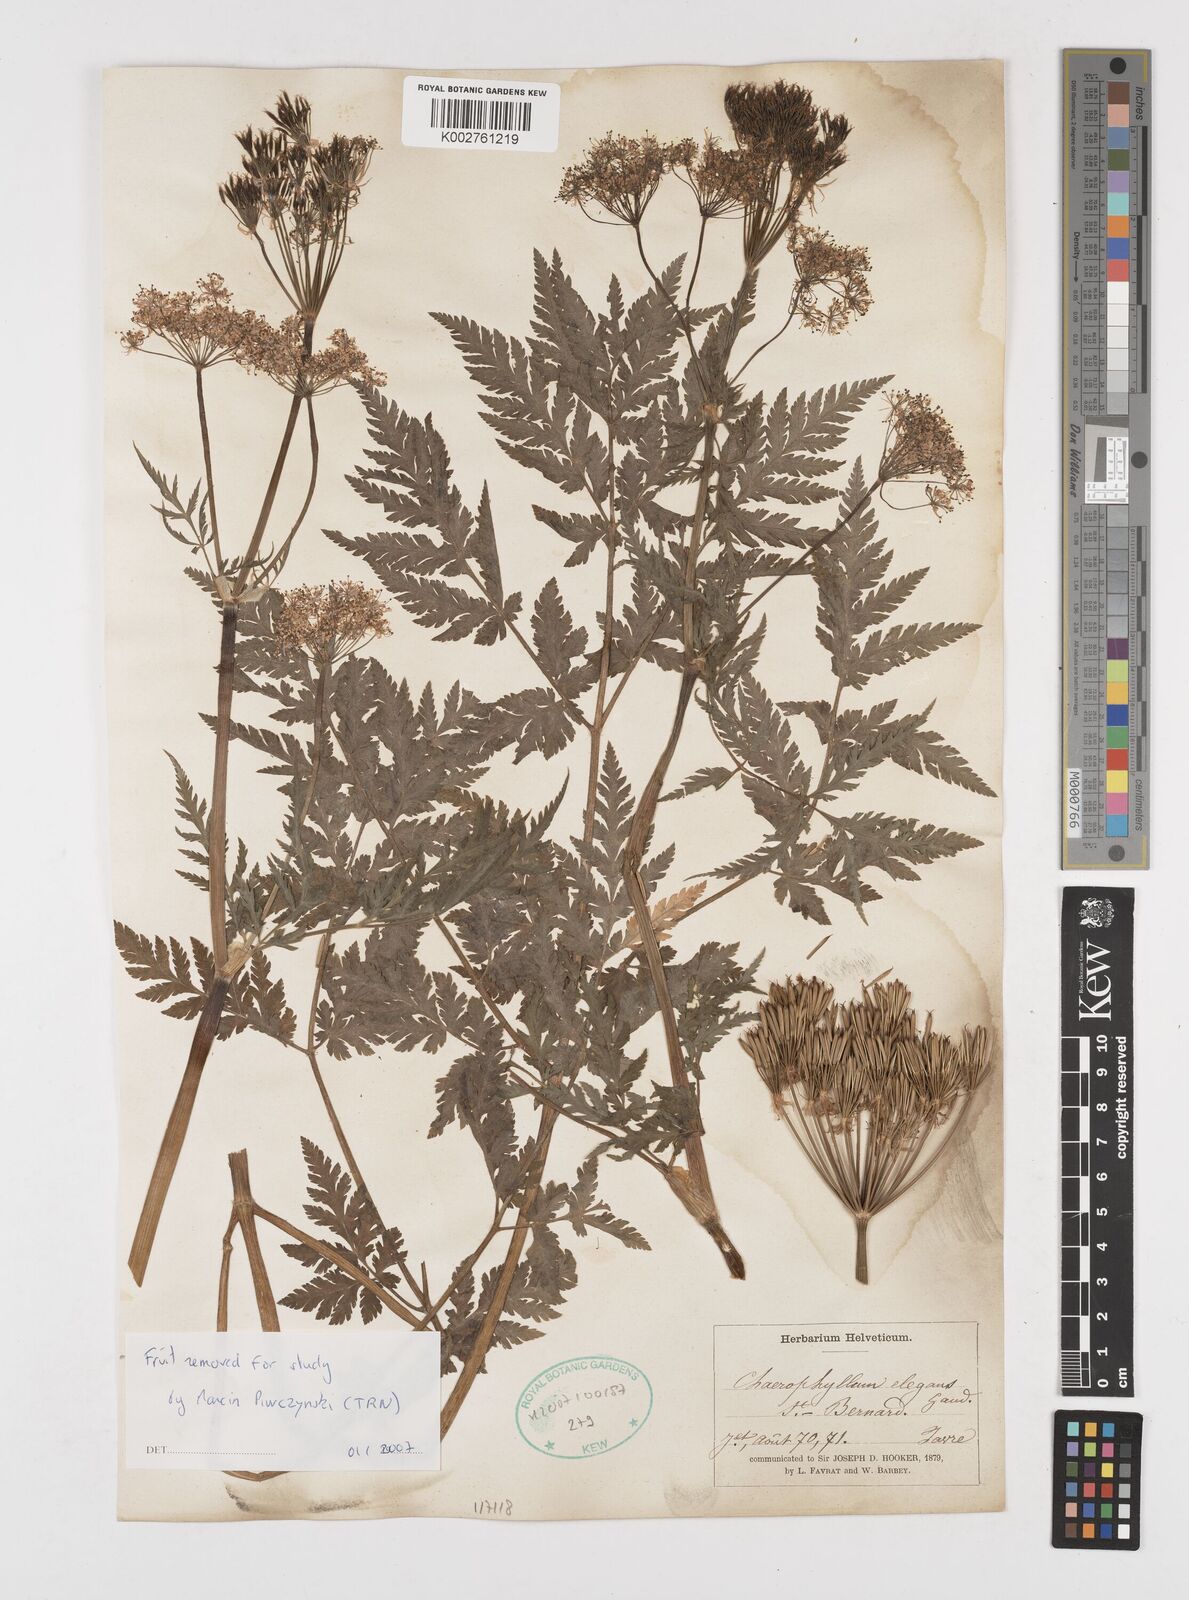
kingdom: Plantae
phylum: Tracheophyta
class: Magnoliopsida
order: Apiales
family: Apiaceae
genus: Chaerophyllum
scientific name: Chaerophyllum elegans
